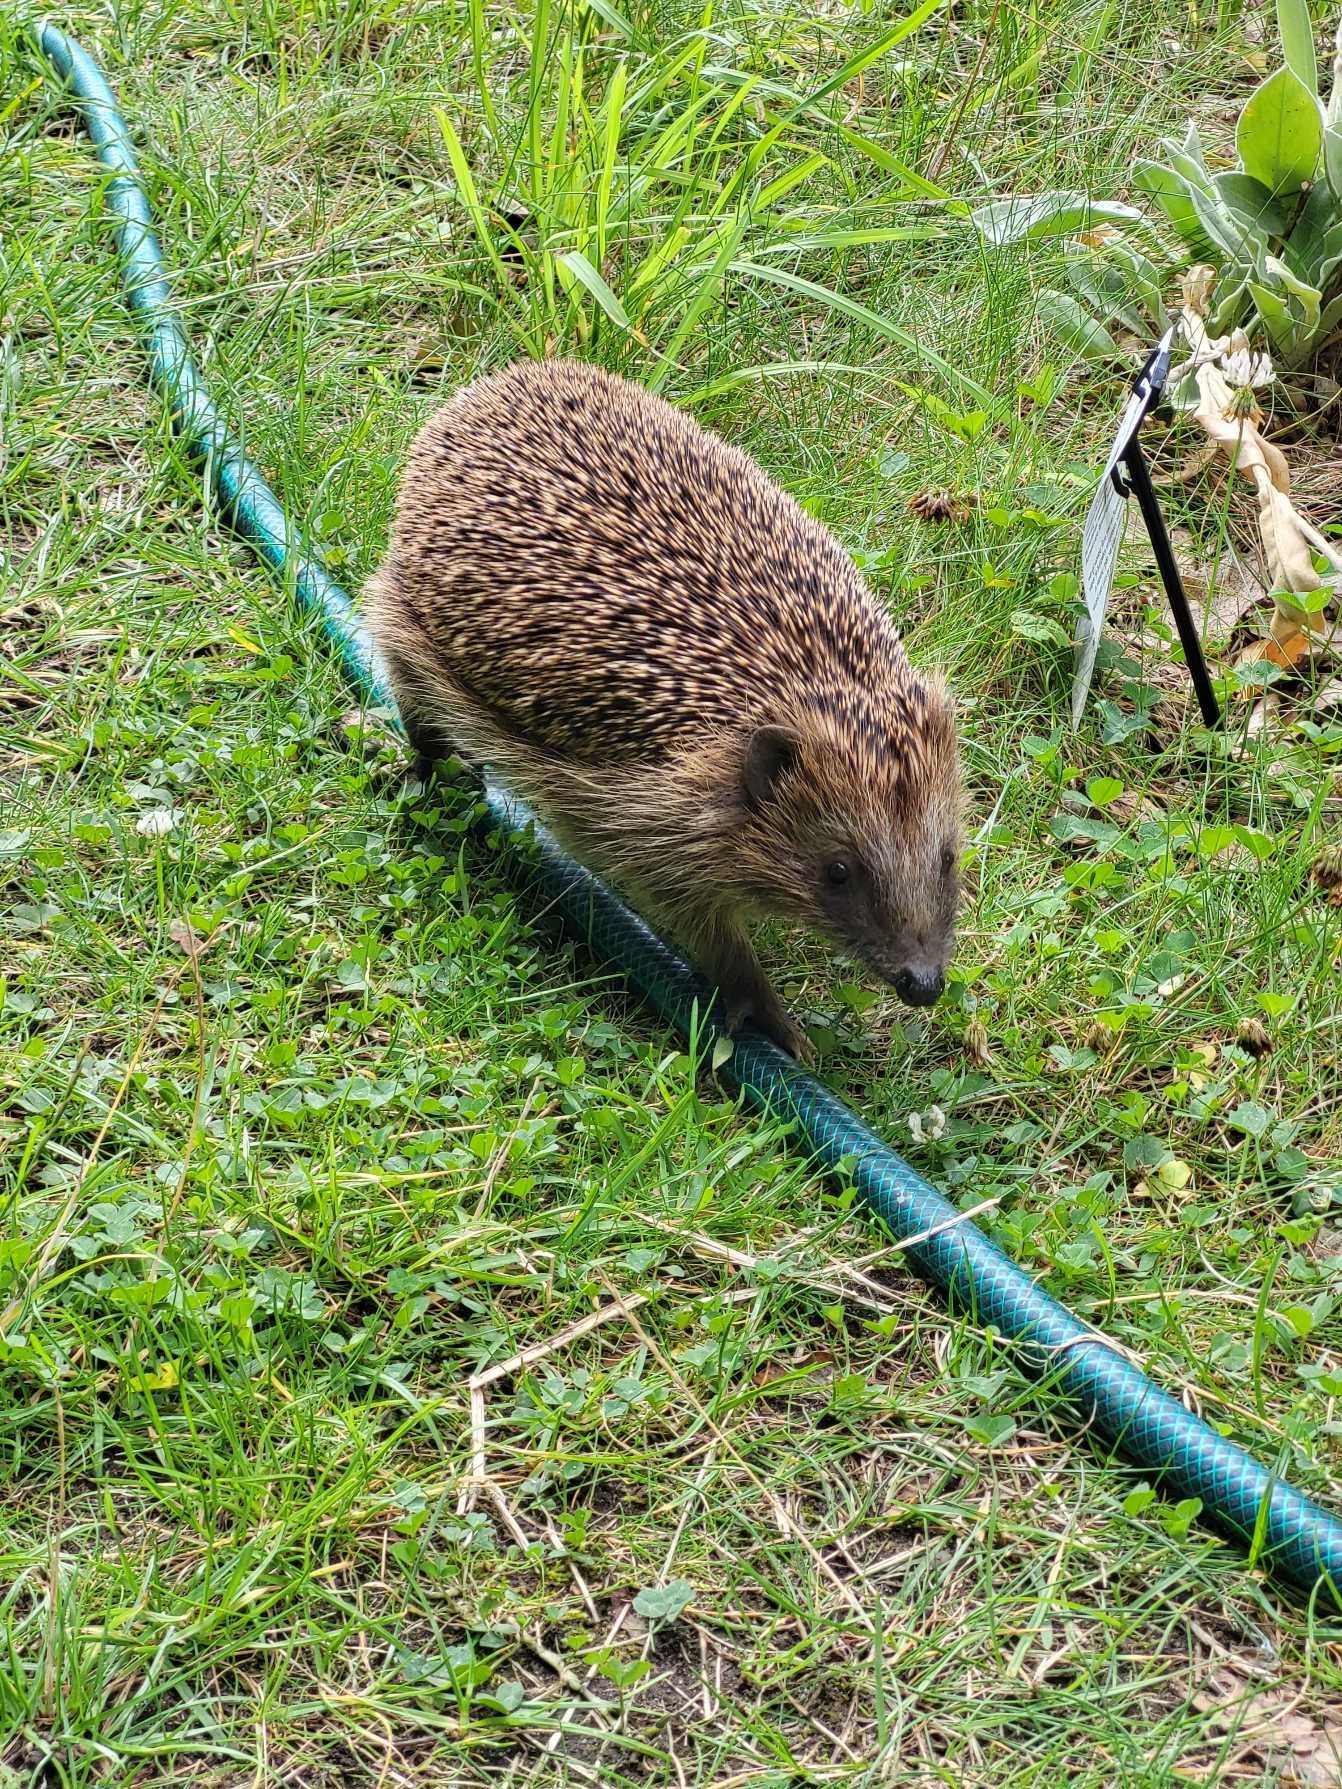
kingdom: Animalia
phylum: Chordata
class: Mammalia
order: Erinaceomorpha
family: Erinaceidae
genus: Erinaceus
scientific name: Erinaceus europaeus
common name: Pindsvin
